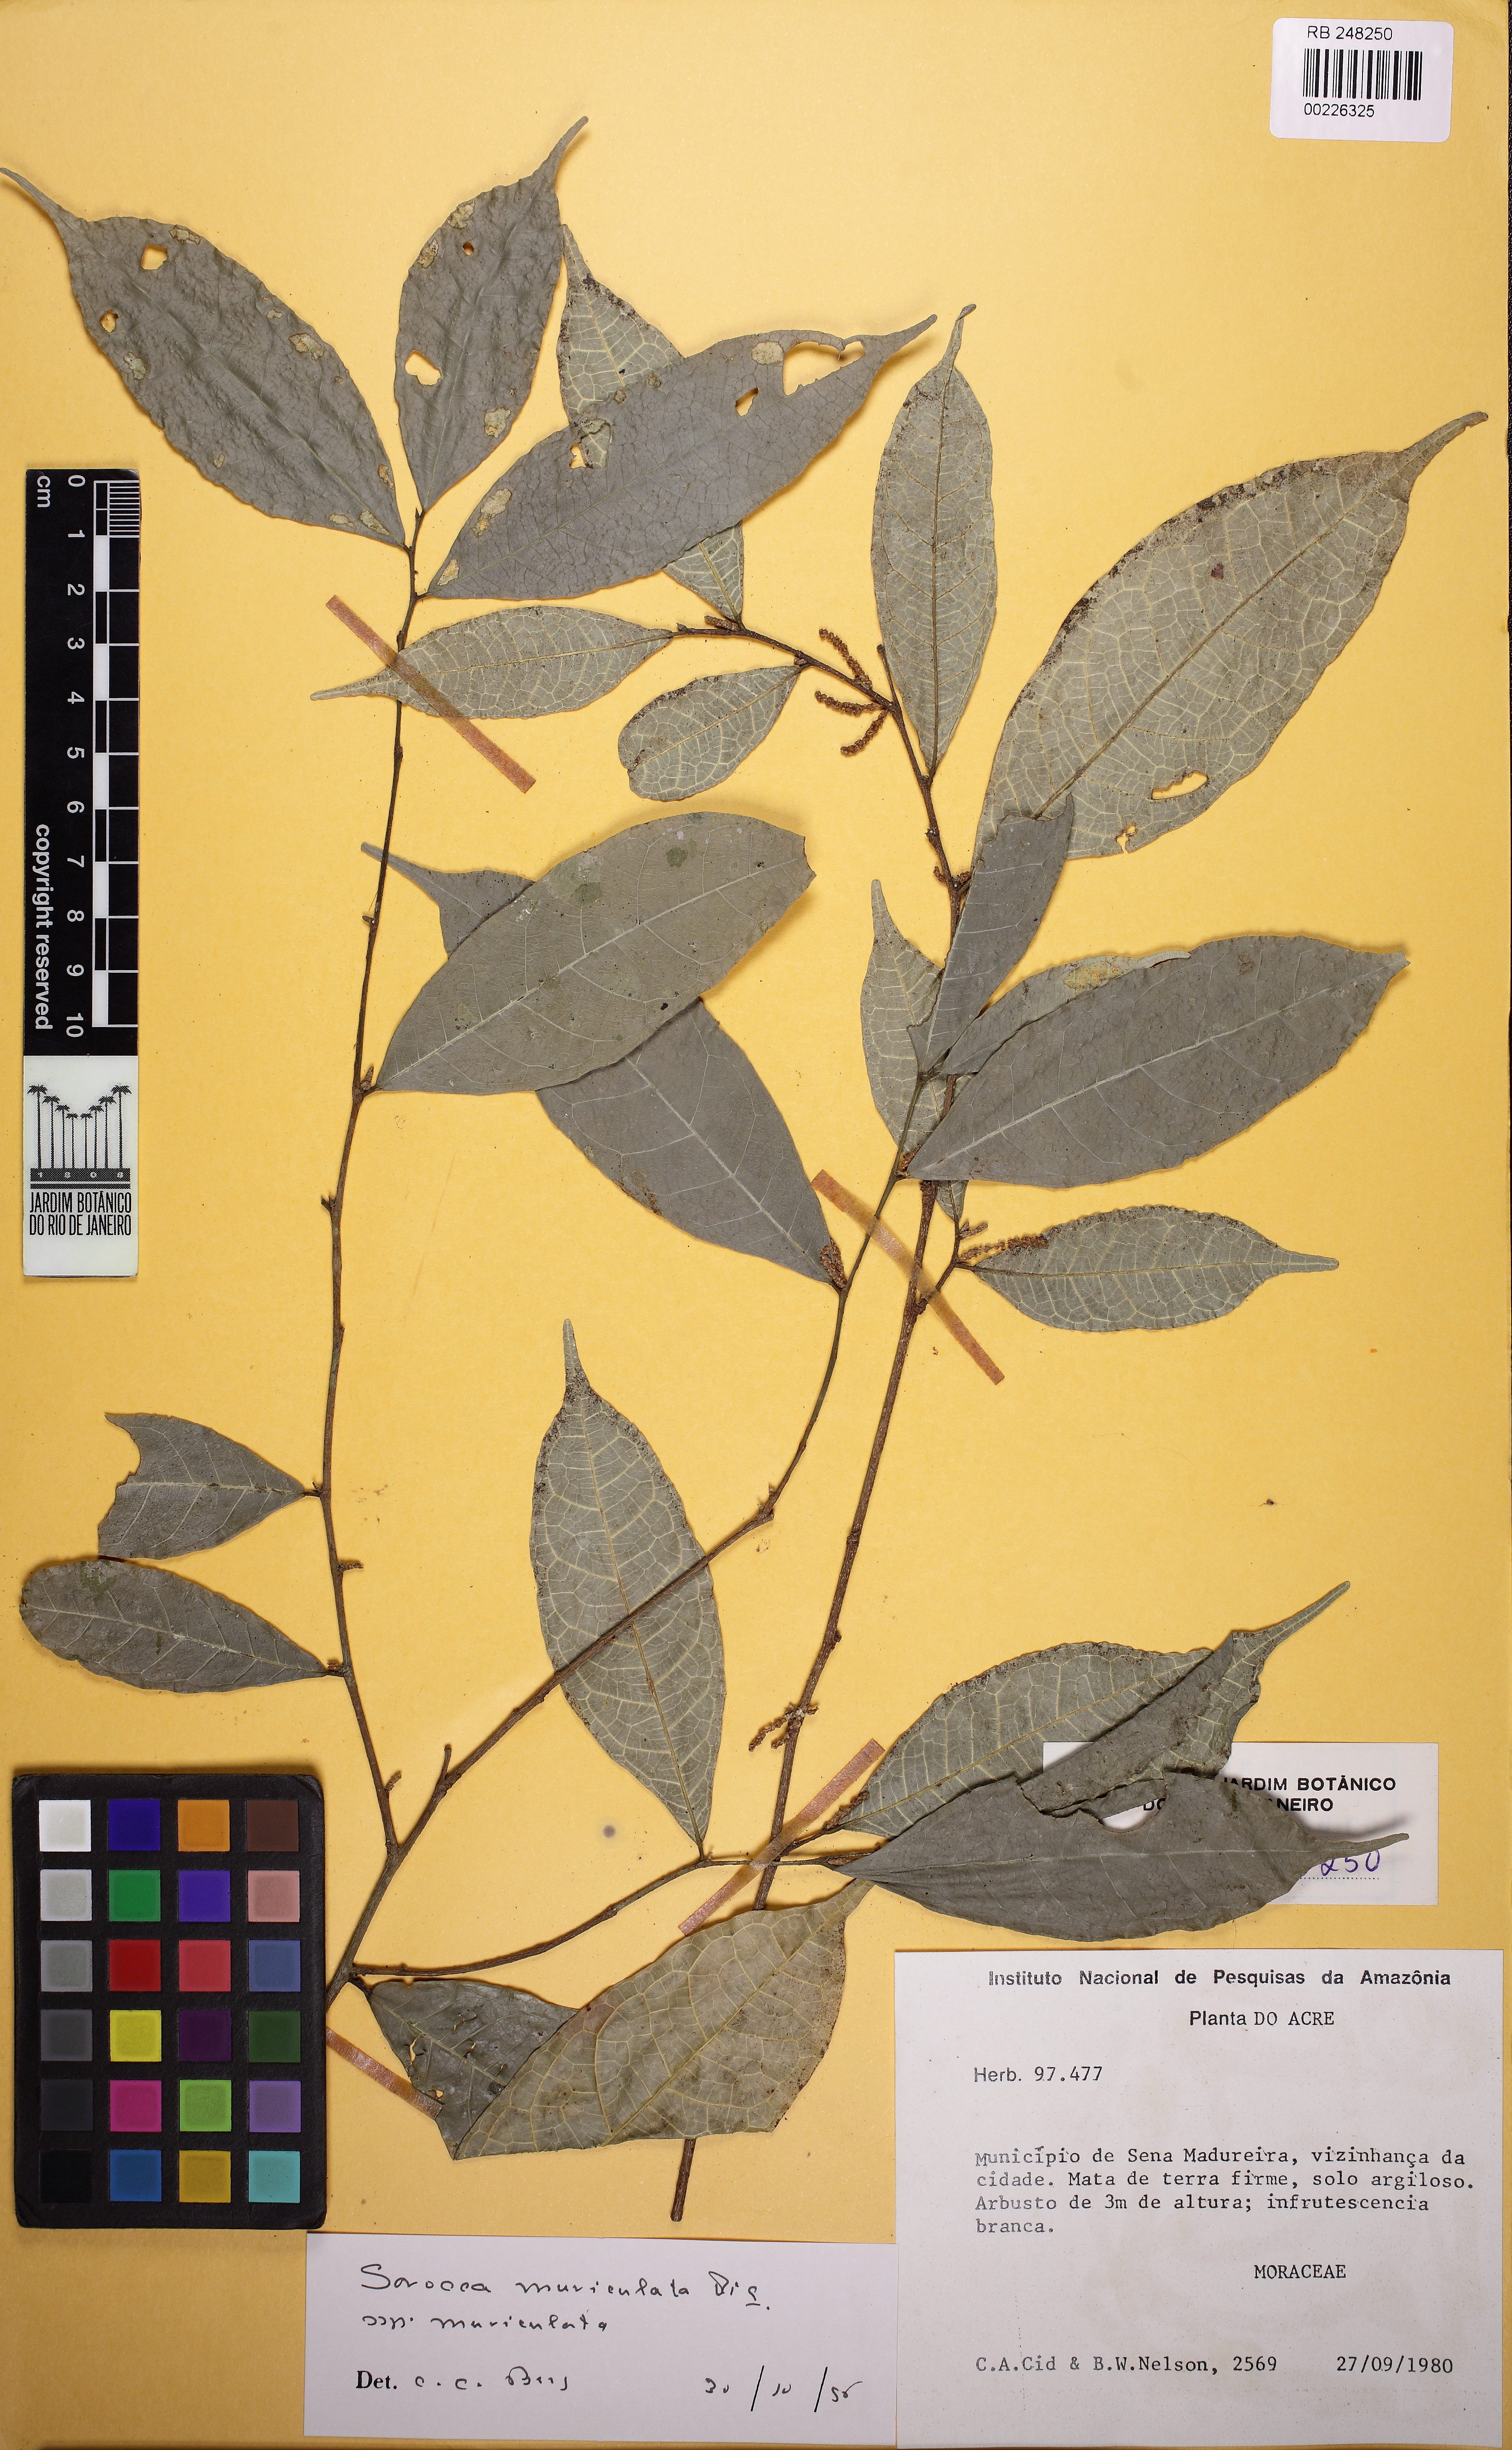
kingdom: Plantae
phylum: Tracheophyta
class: Magnoliopsida
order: Rosales
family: Moraceae
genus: Sorocea
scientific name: Sorocea muriculata
